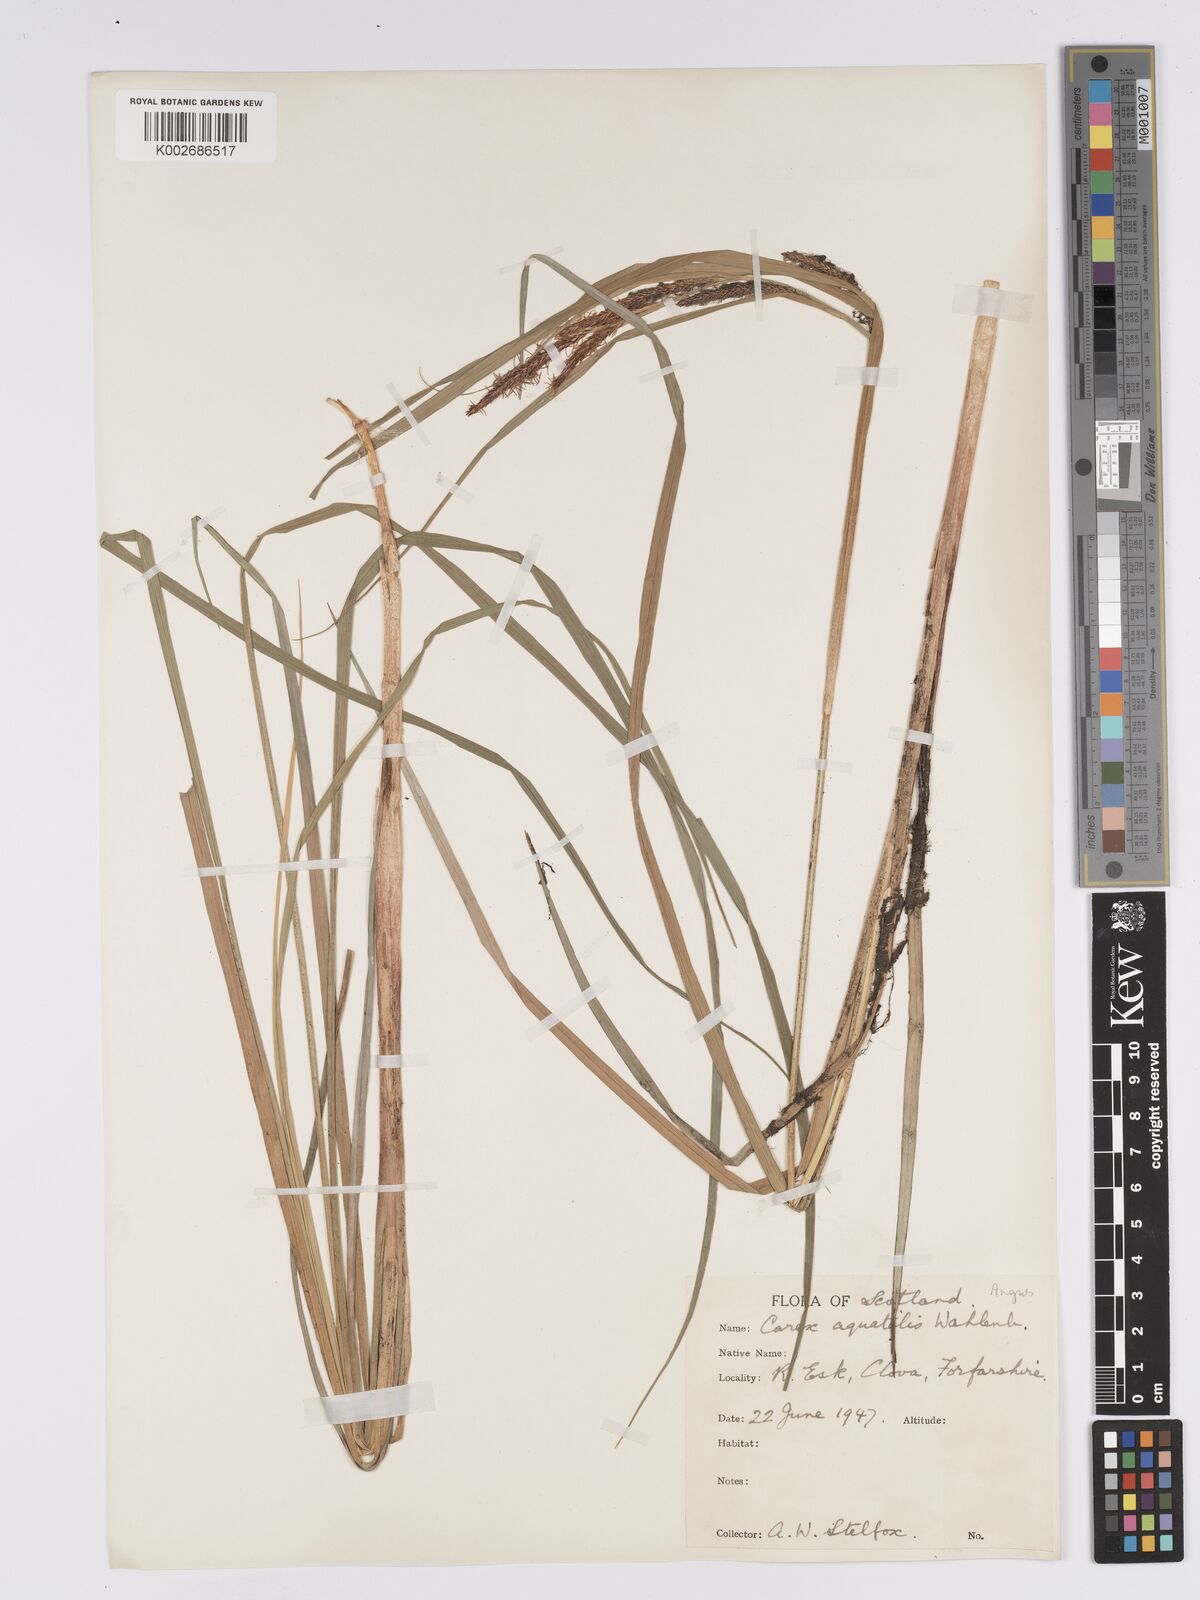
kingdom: Plantae
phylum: Tracheophyta
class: Liliopsida
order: Poales
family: Cyperaceae
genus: Carex
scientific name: Carex aquatilis
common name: Water sedge
